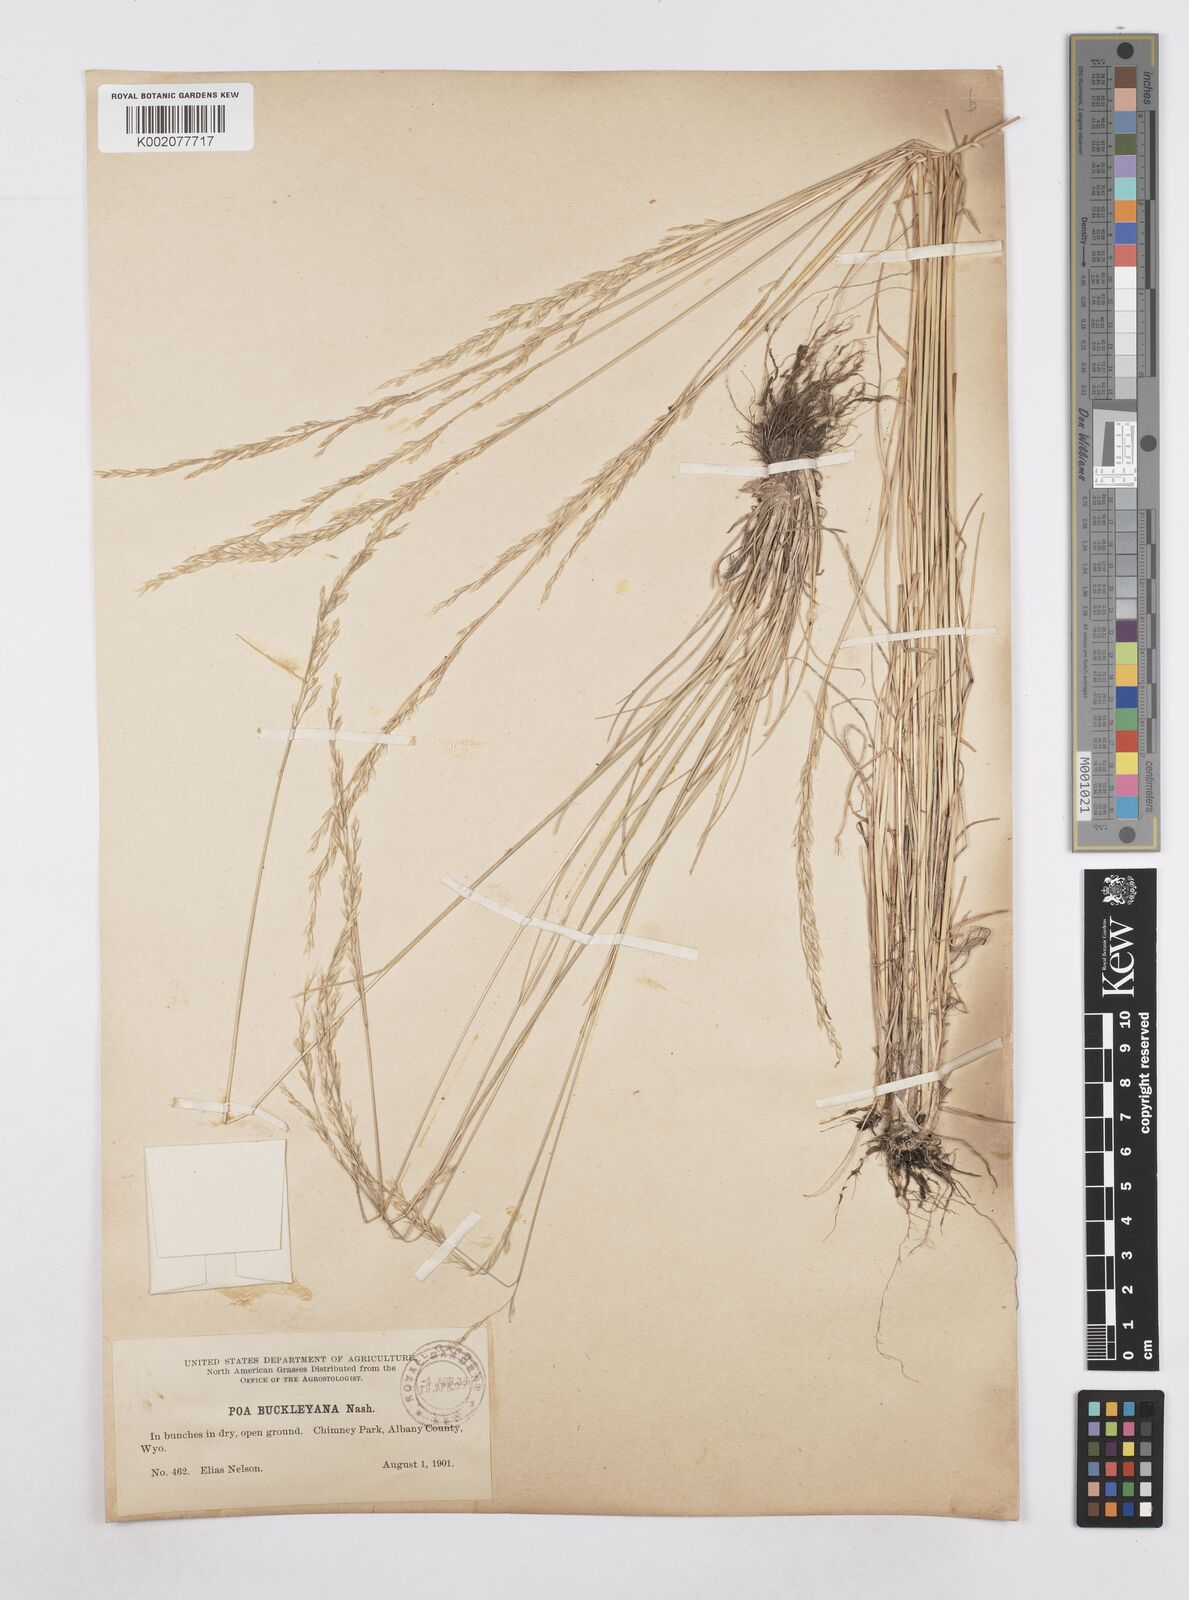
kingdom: Plantae
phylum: Tracheophyta
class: Liliopsida
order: Poales
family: Poaceae
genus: Poa
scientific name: Poa secunda
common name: Sandberg bluegrass
